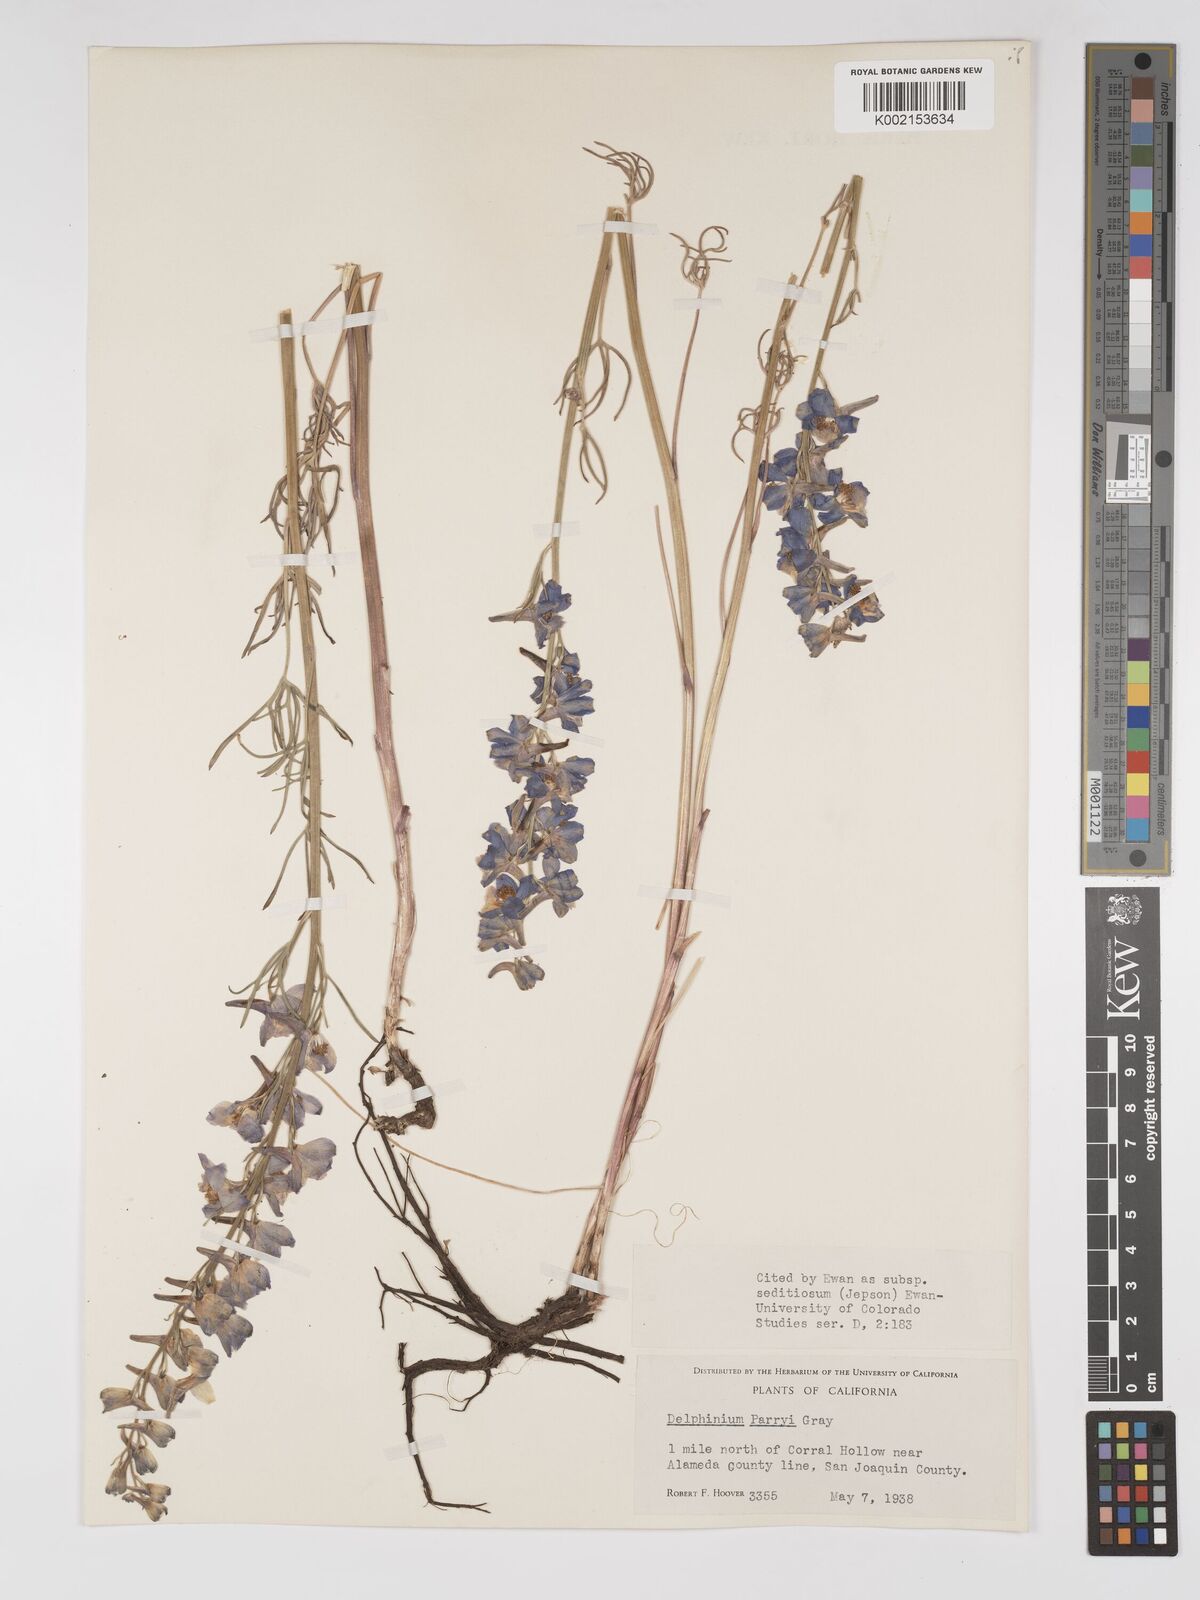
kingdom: Plantae
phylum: Tracheophyta
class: Magnoliopsida
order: Ranunculales
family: Ranunculaceae
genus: Delphinium
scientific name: Delphinium parryi
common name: Parry's larkspur
